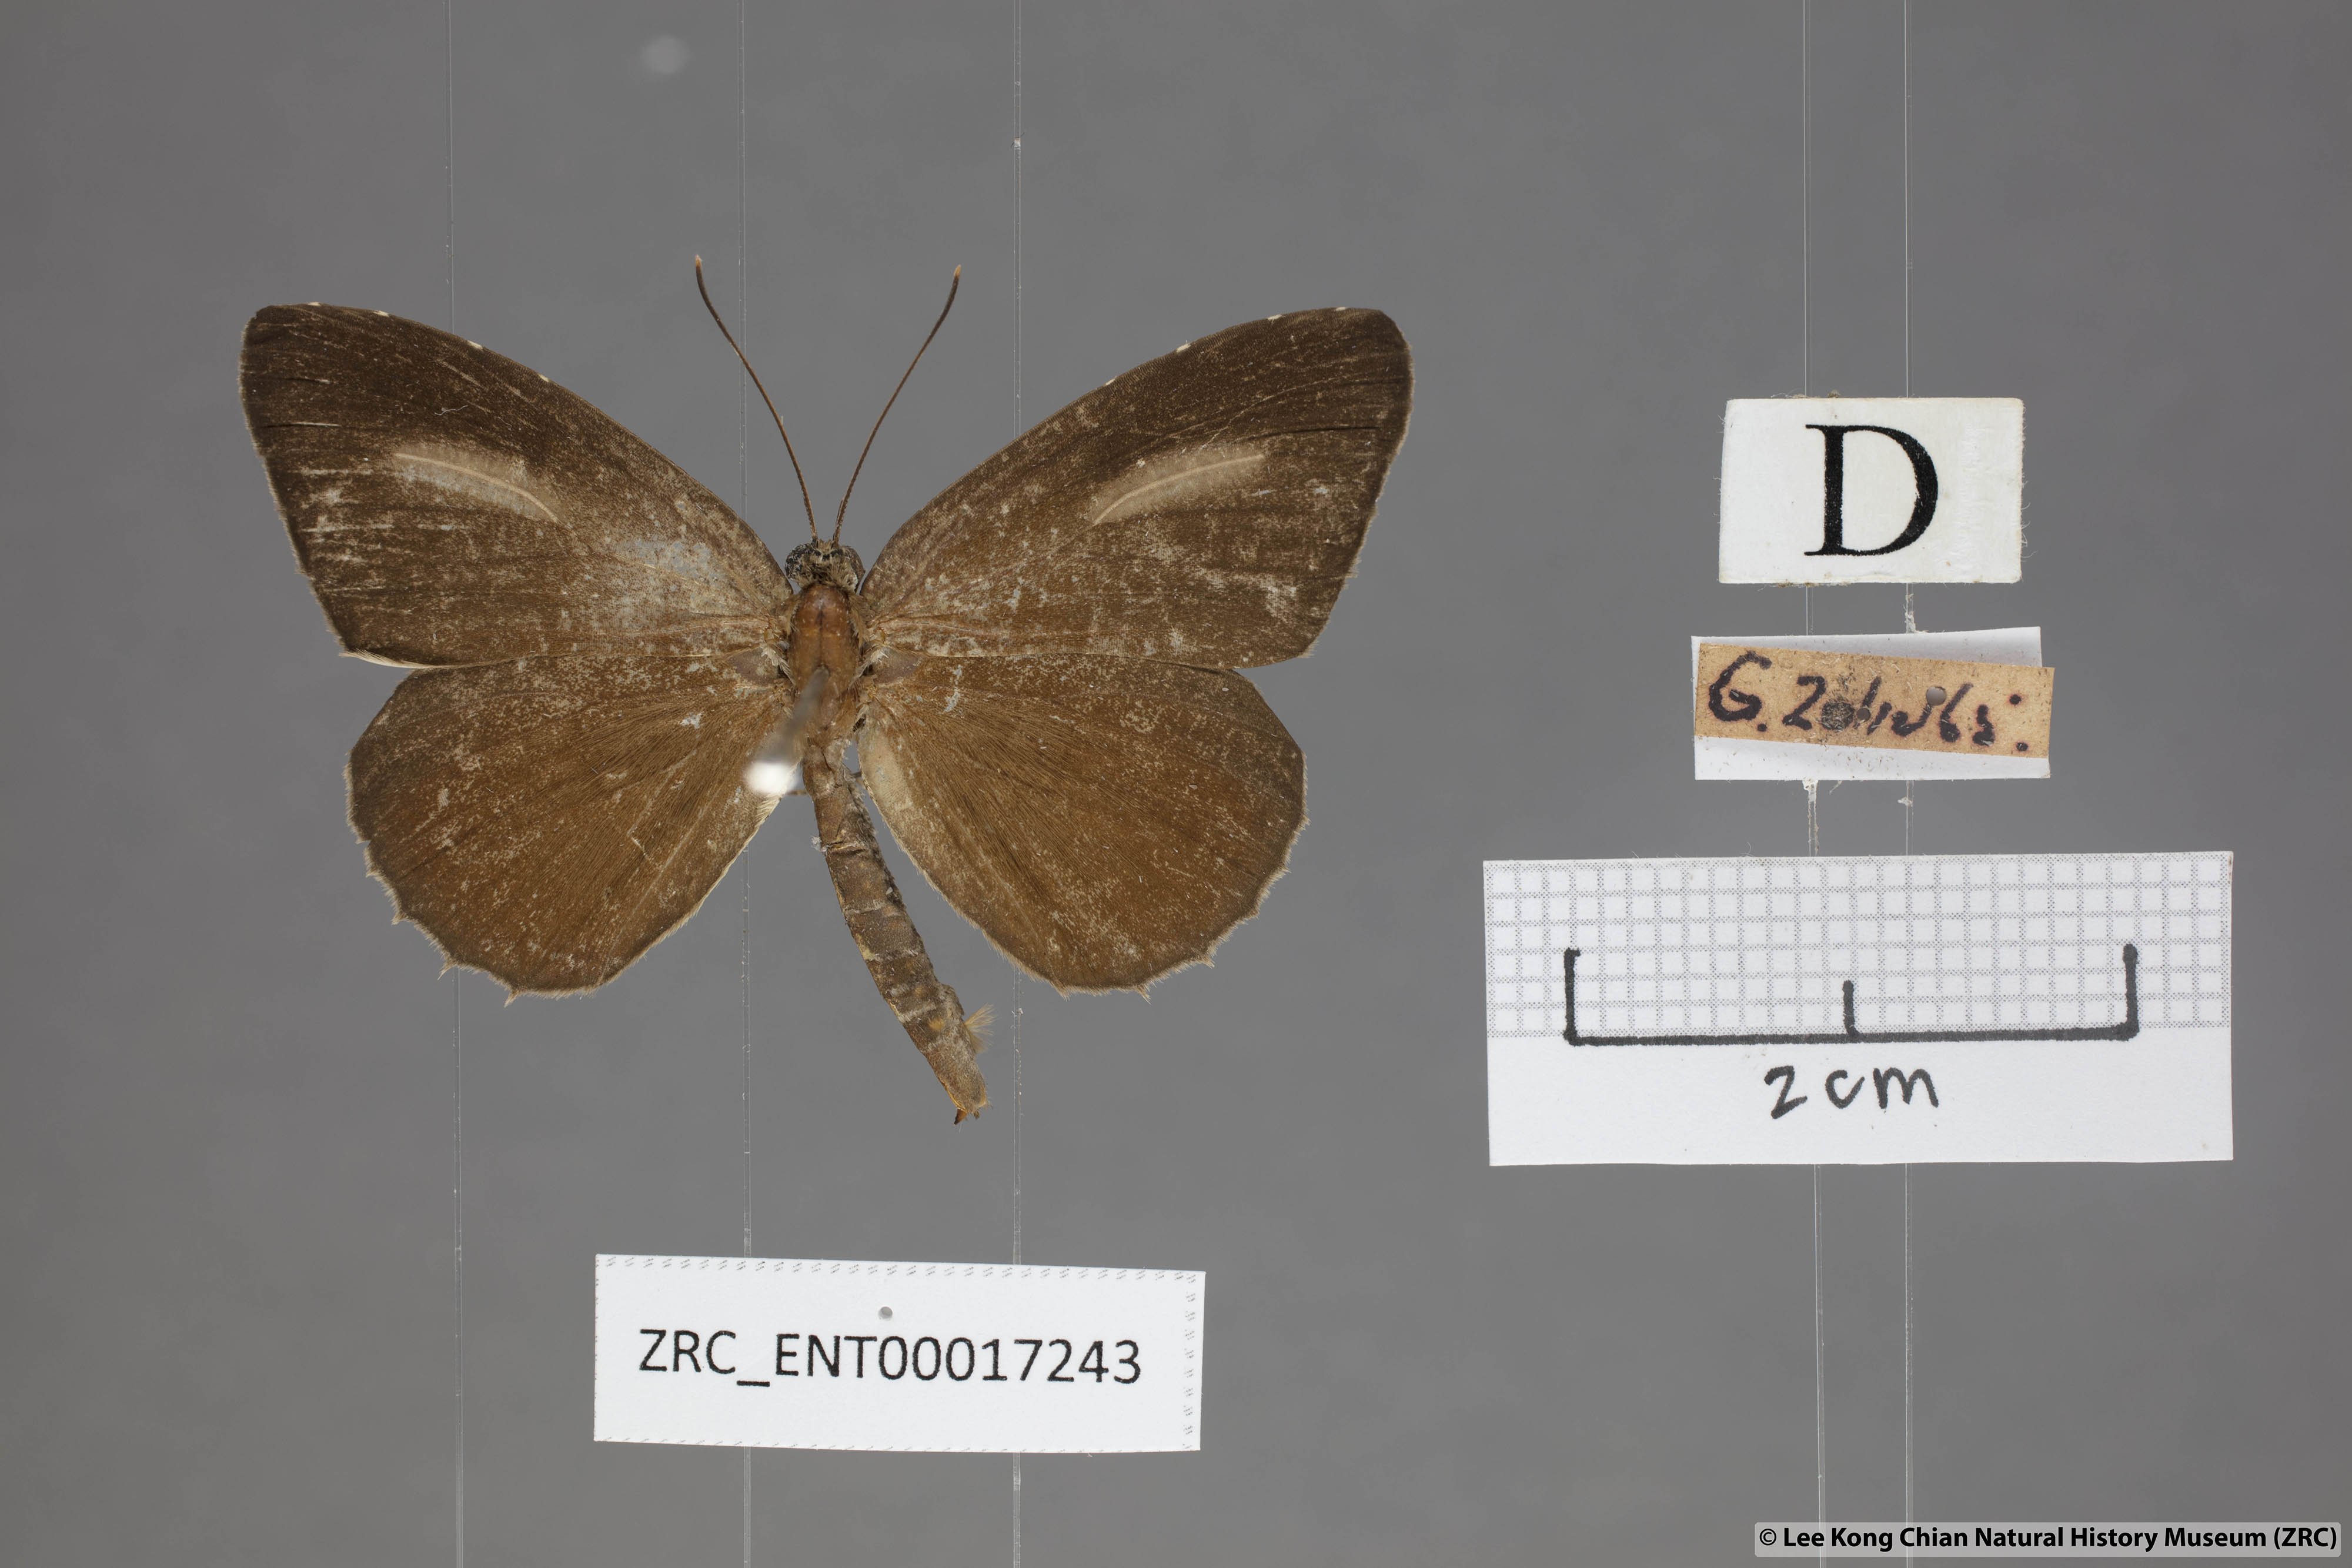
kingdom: Animalia
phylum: Arthropoda
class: Insecta
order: Lepidoptera
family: Lycaenidae
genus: Allotinus
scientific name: Allotinus horsfieldi
